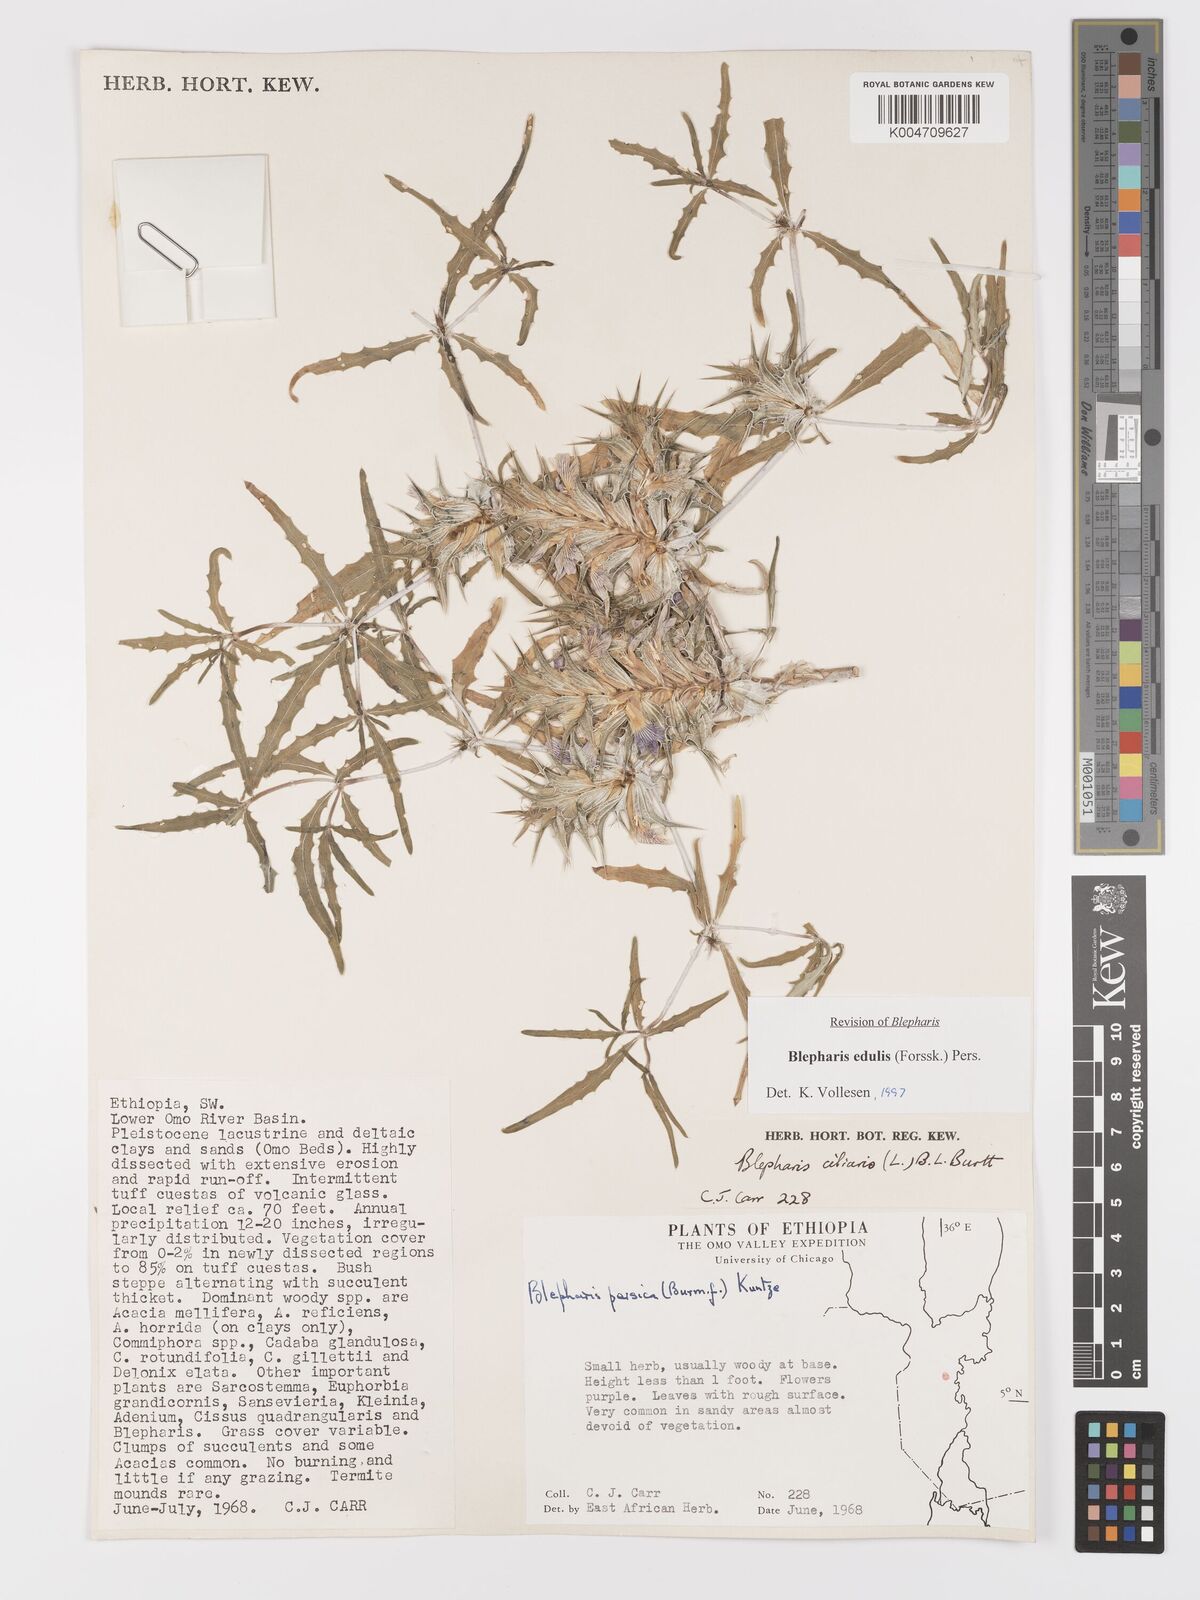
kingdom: Plantae
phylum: Tracheophyta
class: Magnoliopsida
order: Lamiales
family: Acanthaceae
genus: Blepharis
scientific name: Blepharis edulis
